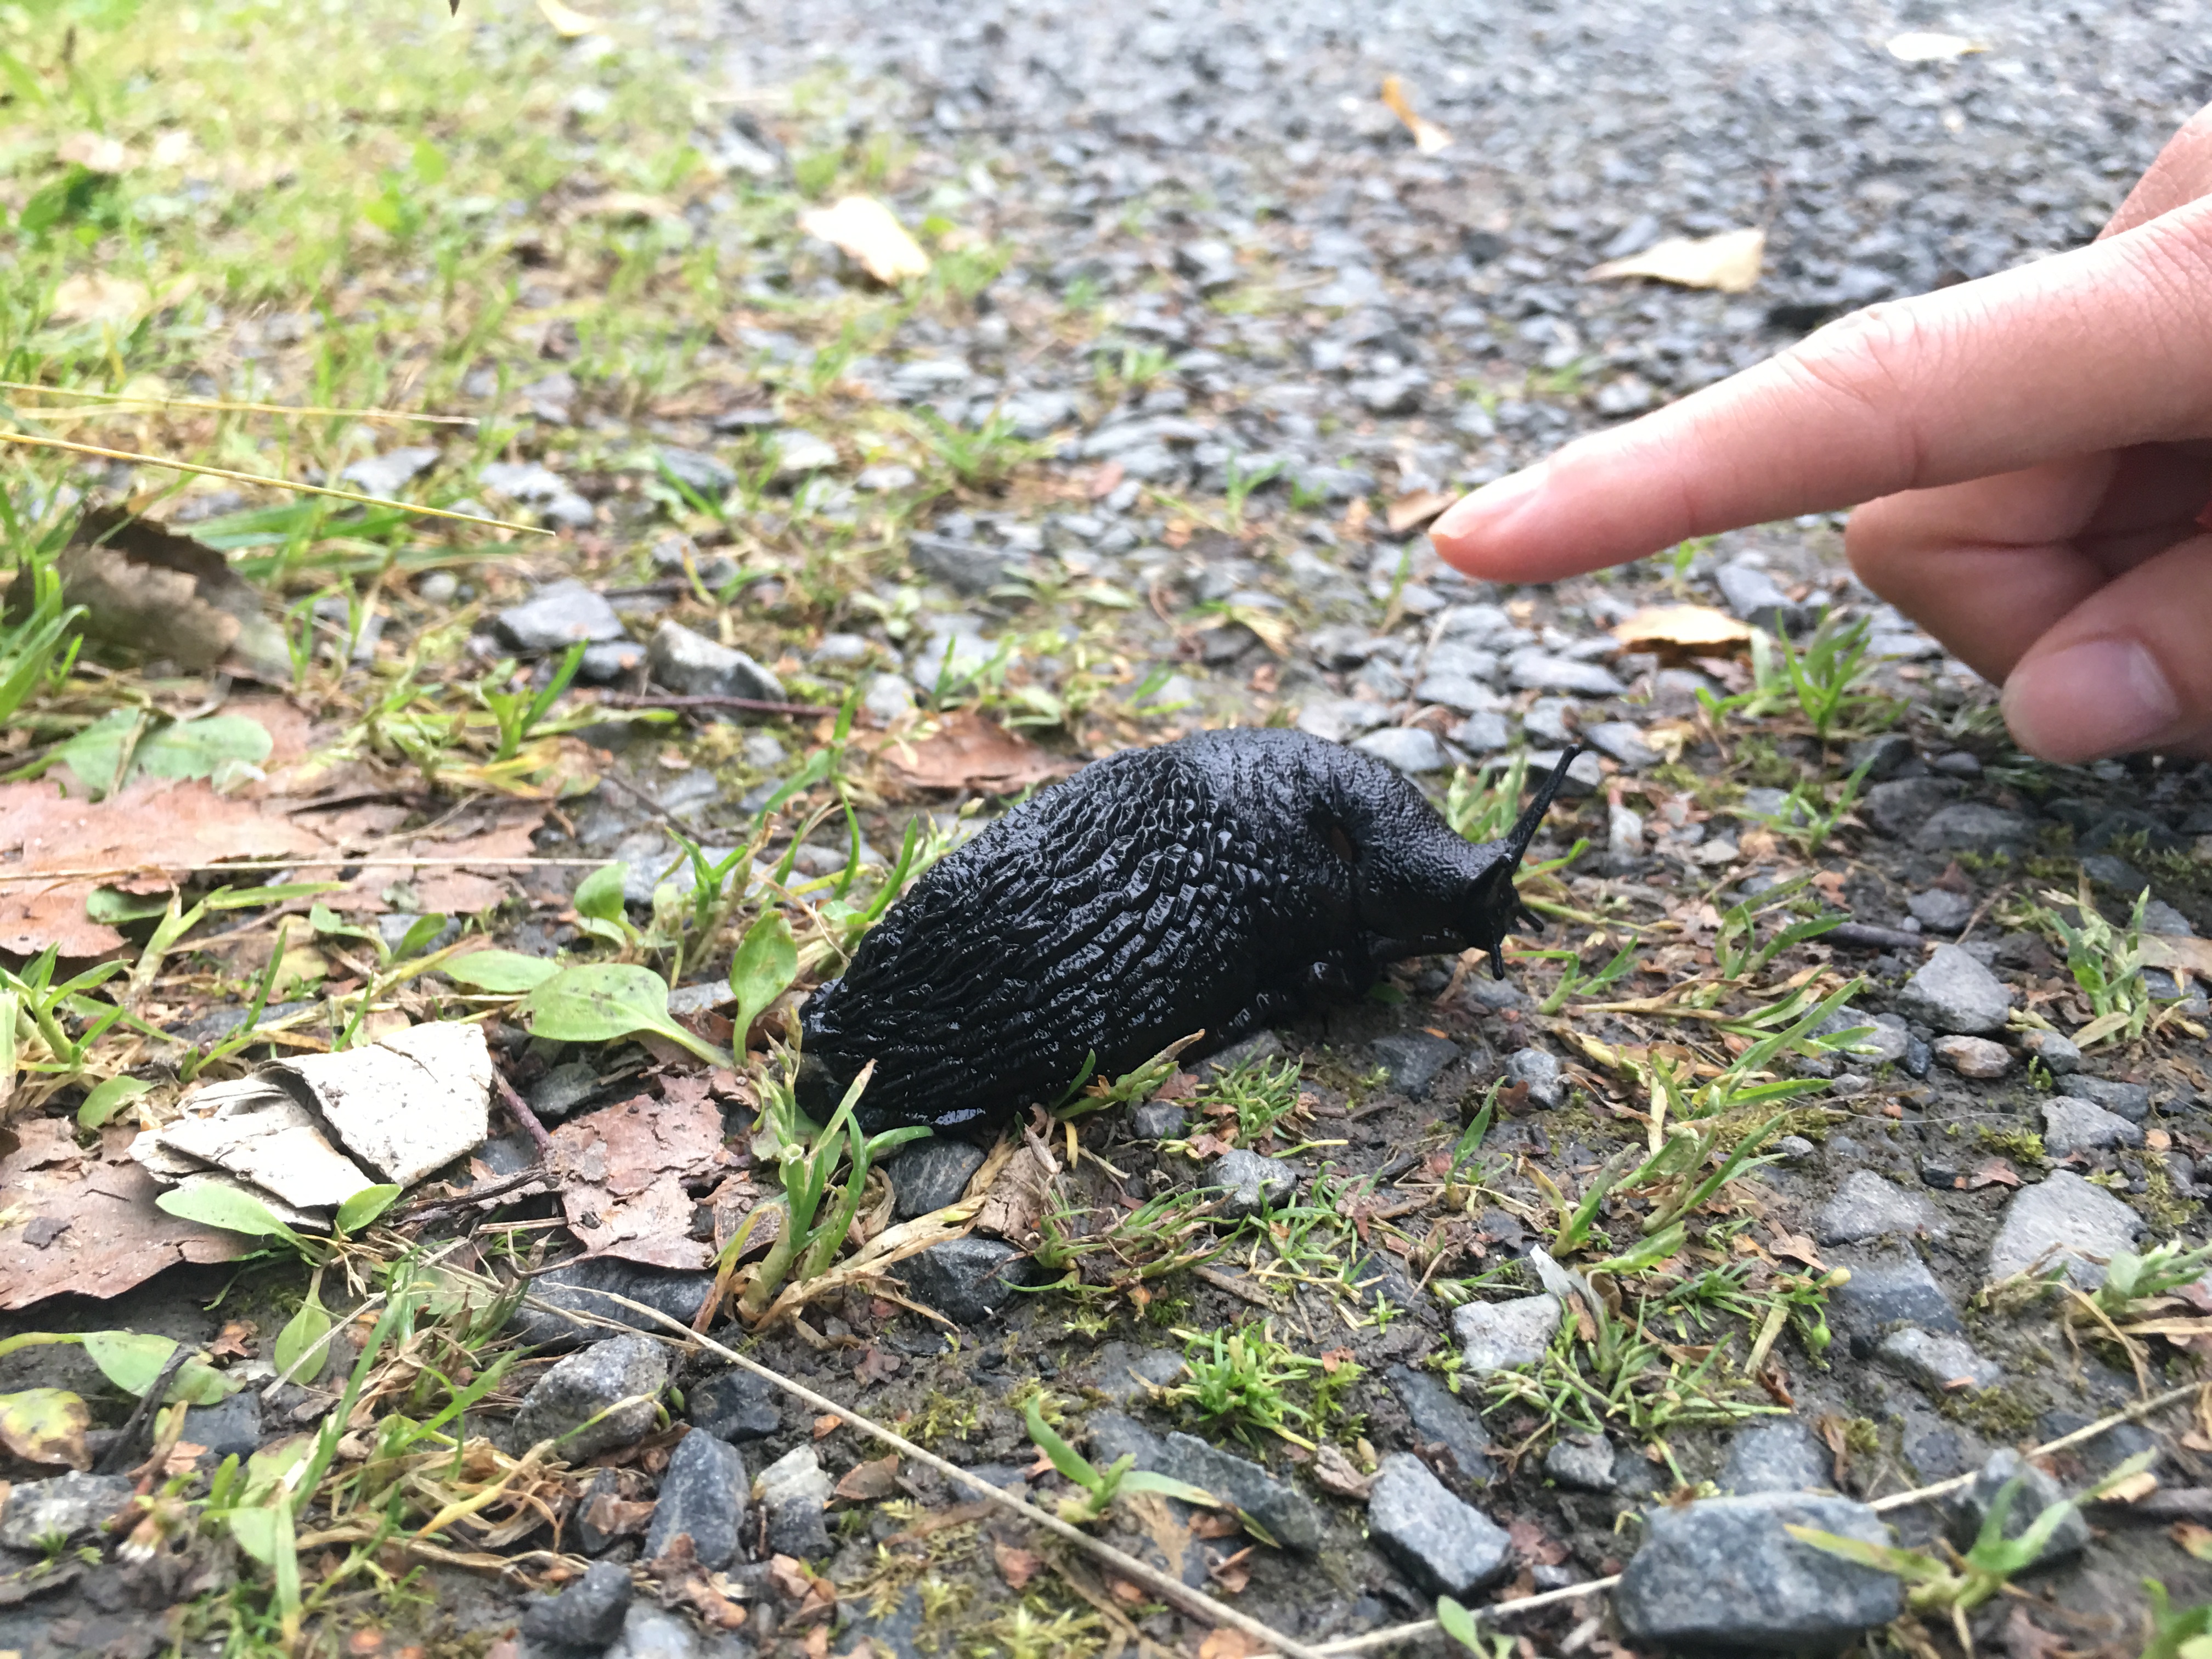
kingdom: Animalia
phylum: Mollusca
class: Gastropoda
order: Stylommatophora
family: Arionidae
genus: Arion
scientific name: Arion vulgaris
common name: Lusitanian slug
